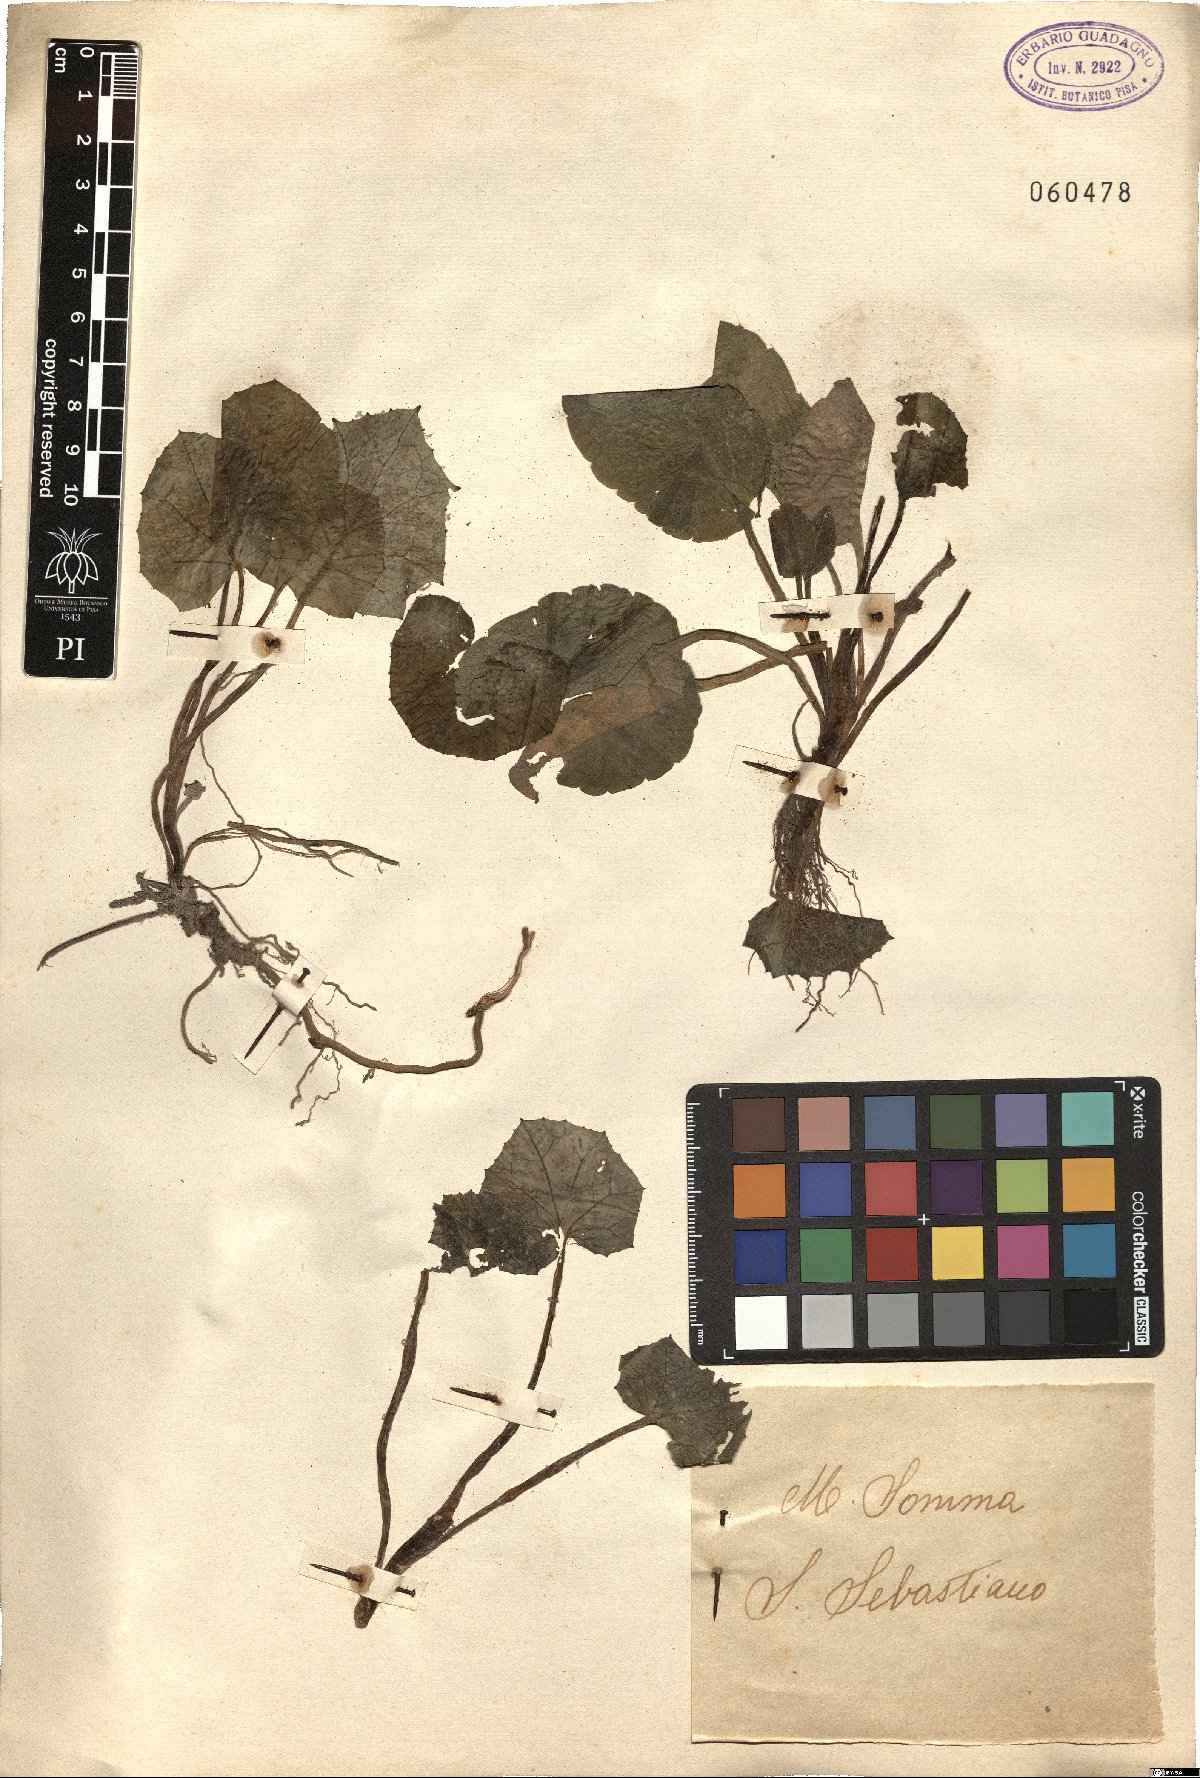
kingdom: Plantae
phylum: Tracheophyta
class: Magnoliopsida
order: Asterales
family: Asteraceae
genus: Tussilago
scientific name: Tussilago farfara
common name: Coltsfoot
